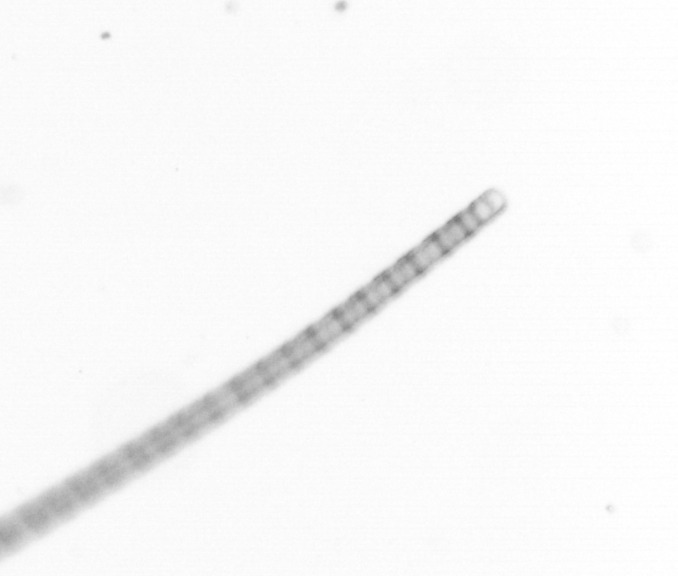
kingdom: Chromista
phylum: Ochrophyta
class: Bacillariophyceae
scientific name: Bacillariophyceae
